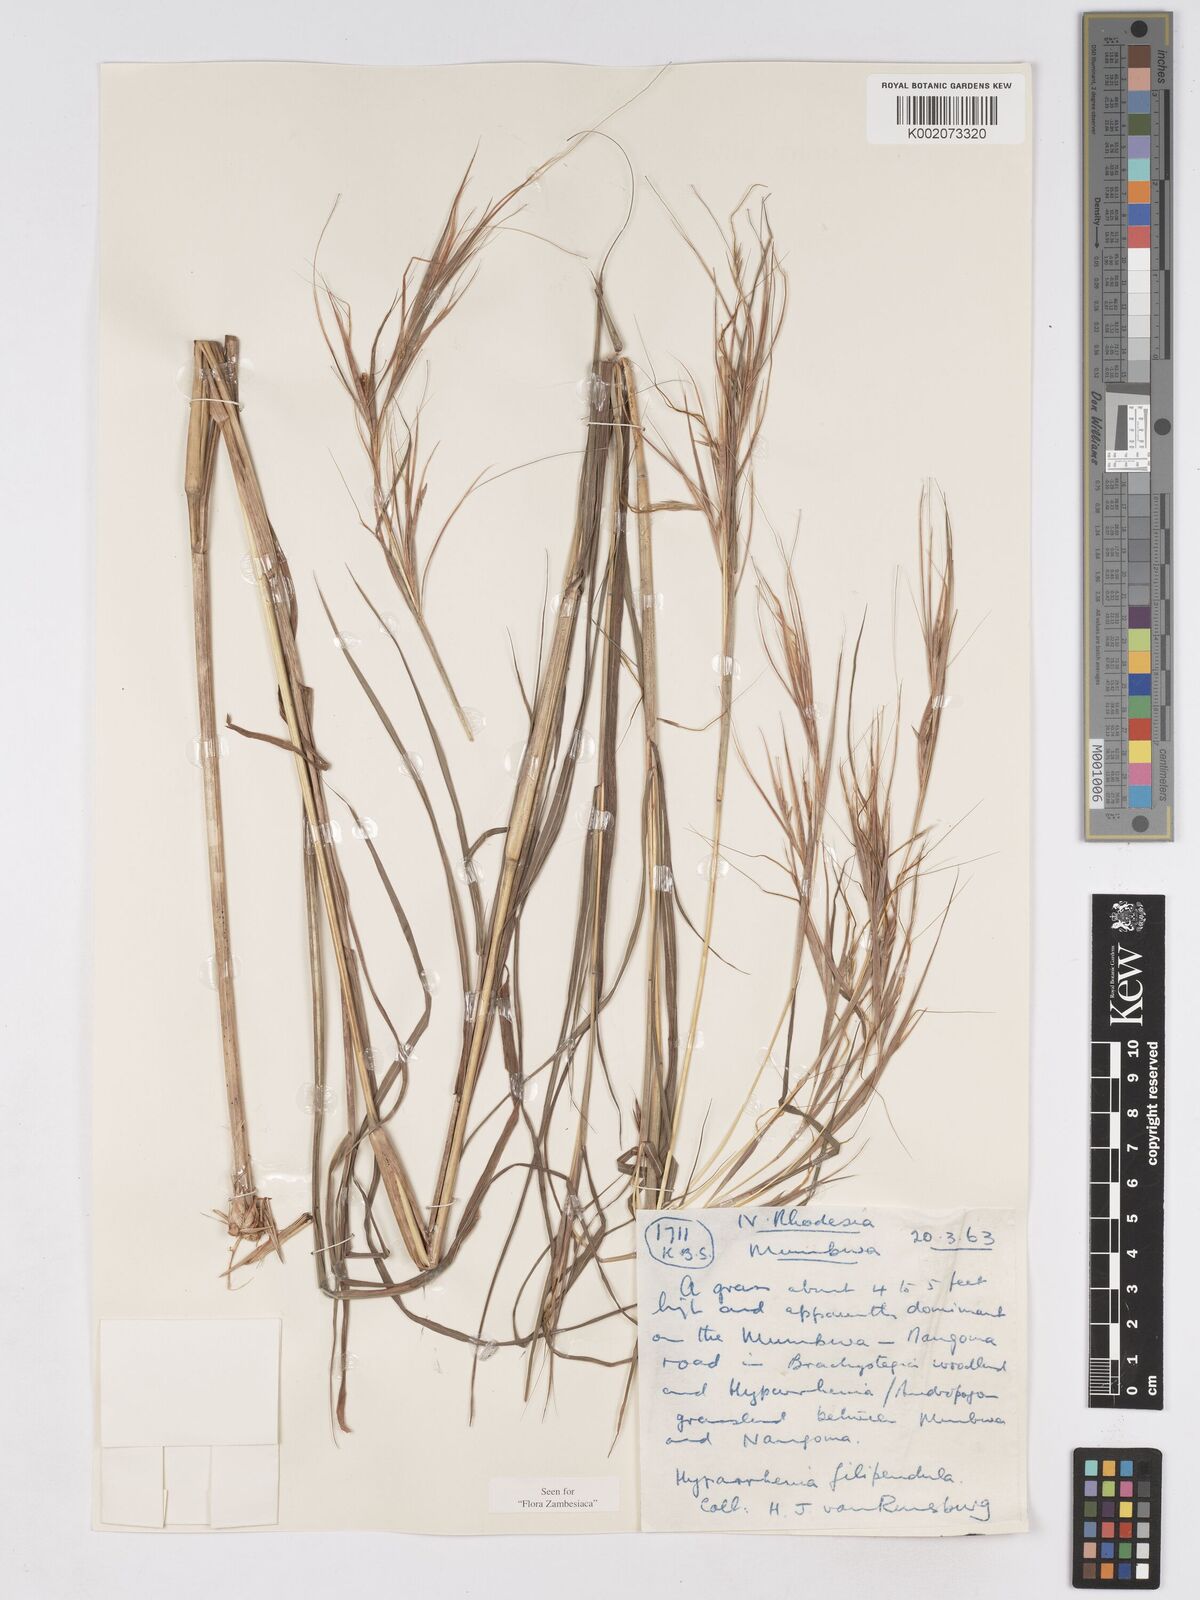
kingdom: Plantae
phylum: Tracheophyta
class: Liliopsida
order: Poales
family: Poaceae
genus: Hyparrhenia
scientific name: Hyparrhenia filipendula
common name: Tambookie grass
